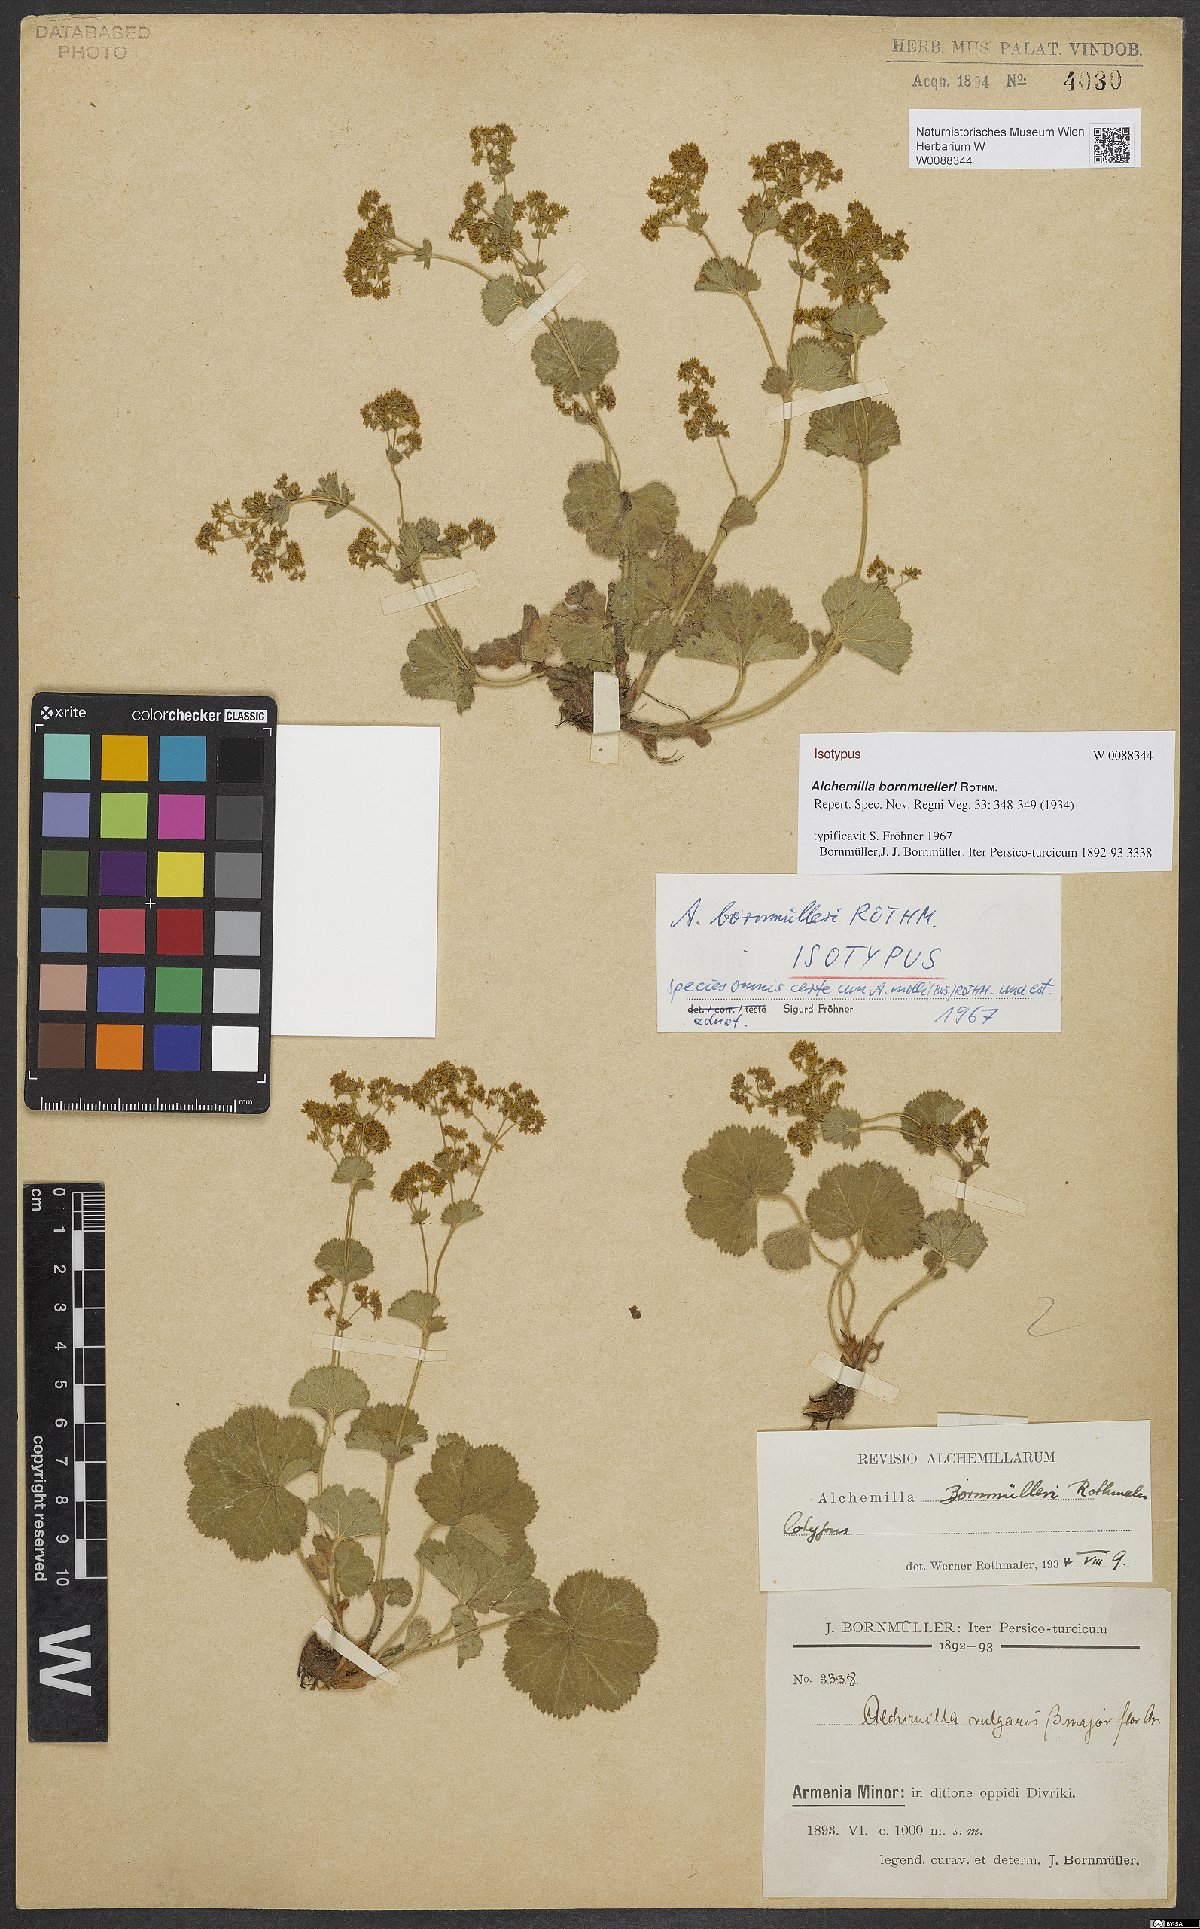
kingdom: Plantae
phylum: Tracheophyta
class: Magnoliopsida
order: Rosales
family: Rosaceae
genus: Alchemilla
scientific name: Alchemilla bornmuelleri
